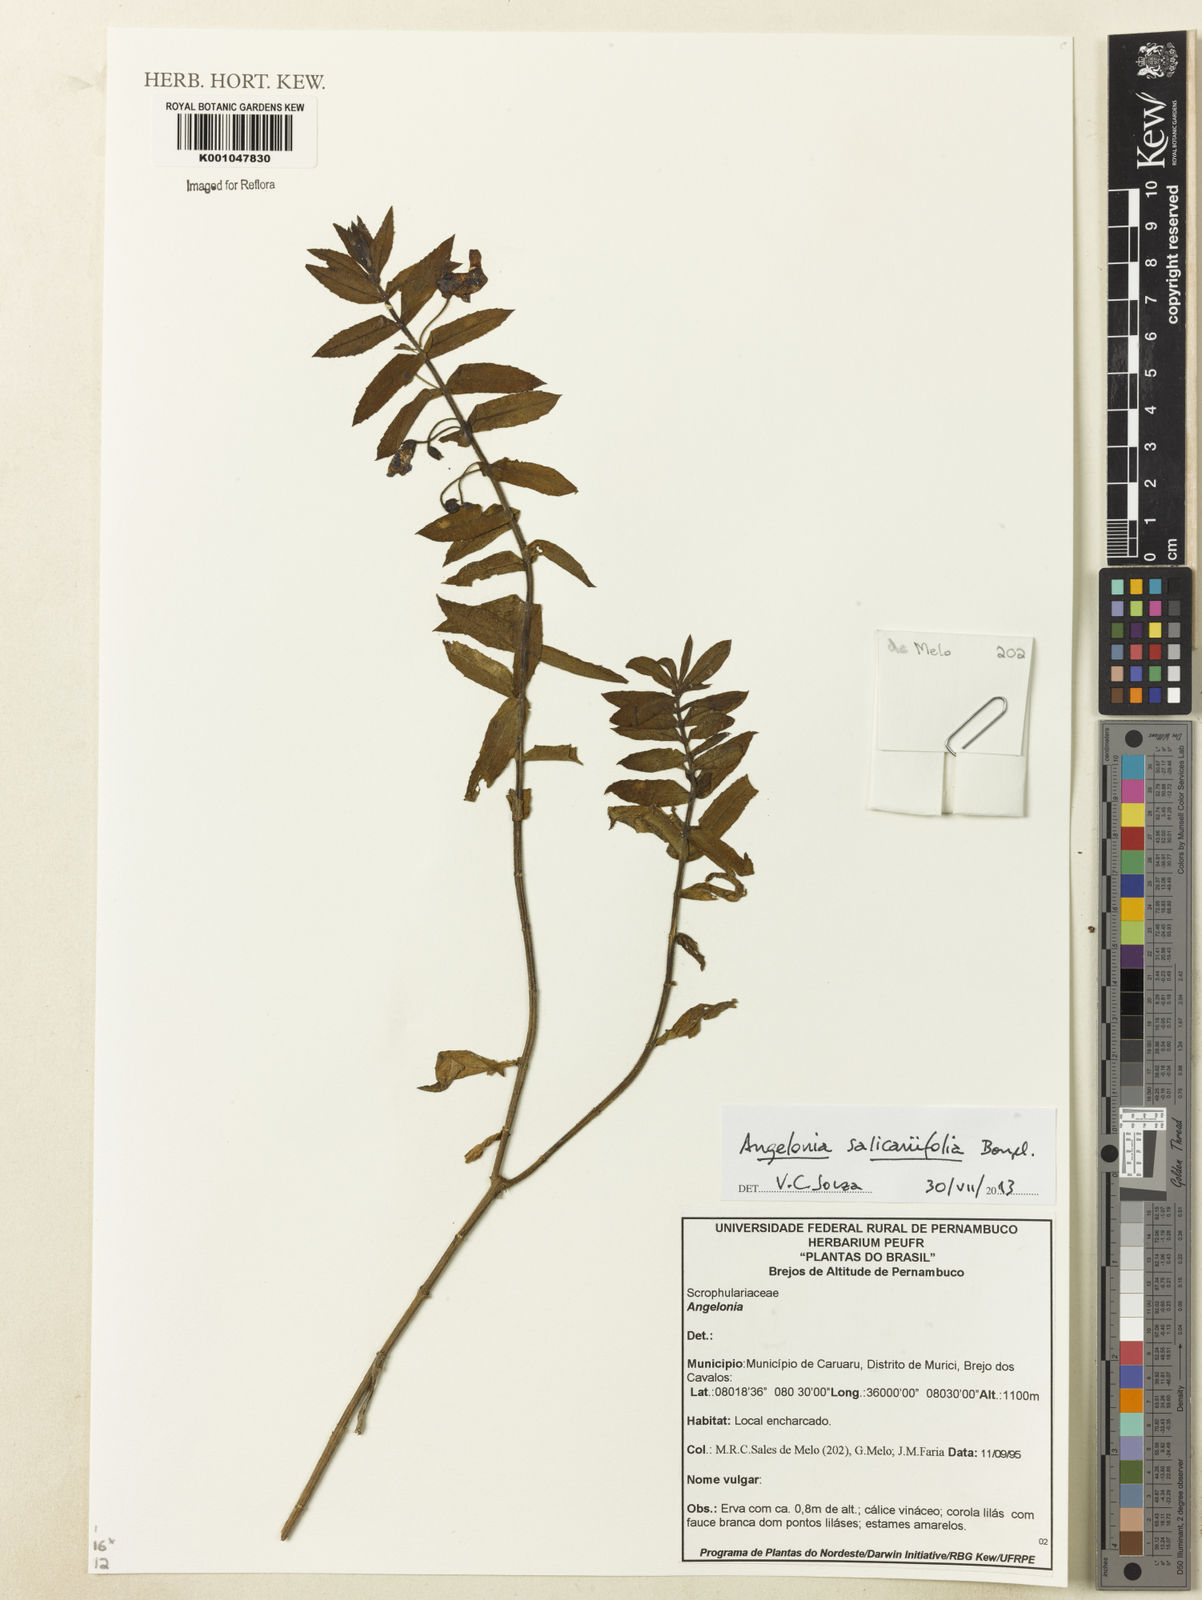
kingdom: Plantae
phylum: Tracheophyta
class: Magnoliopsida
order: Lamiales
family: Plantaginaceae
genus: Angelonia
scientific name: Angelonia salicariifolia
